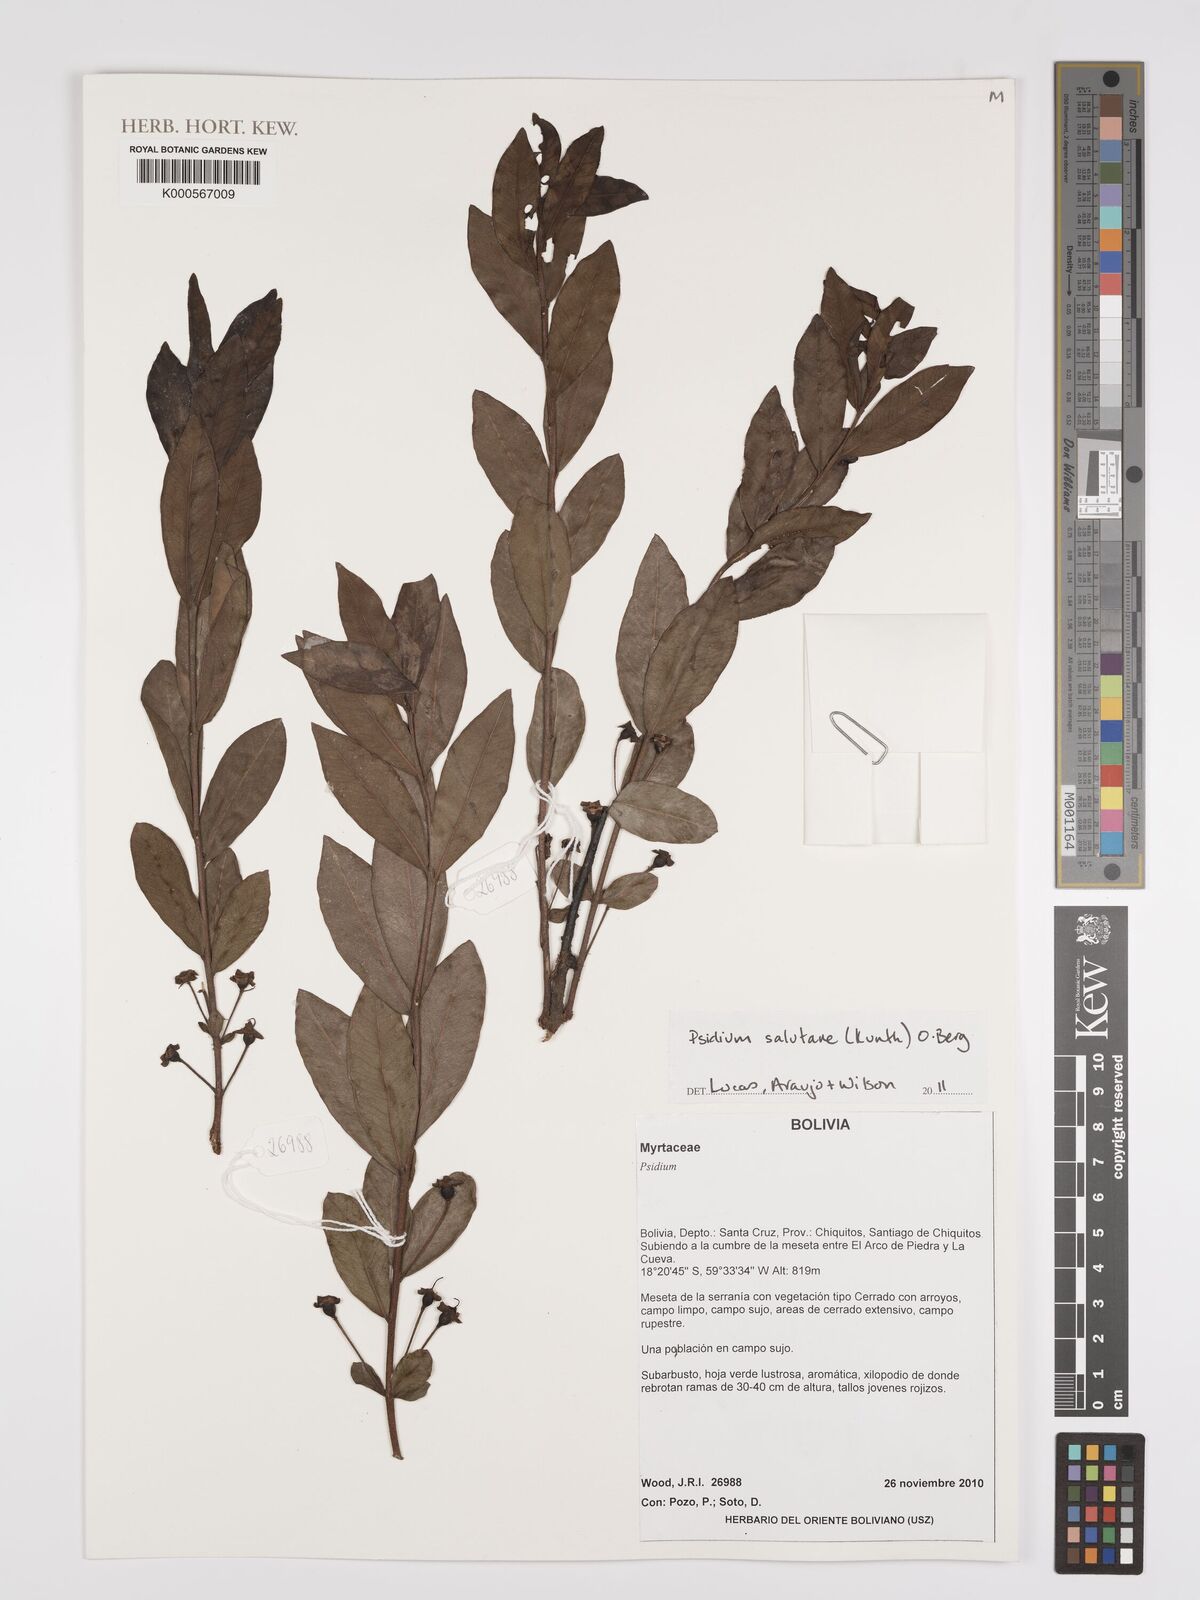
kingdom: Plantae
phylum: Tracheophyta
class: Magnoliopsida
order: Myrtales
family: Myrtaceae
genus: Psidium
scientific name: Psidium salutare
